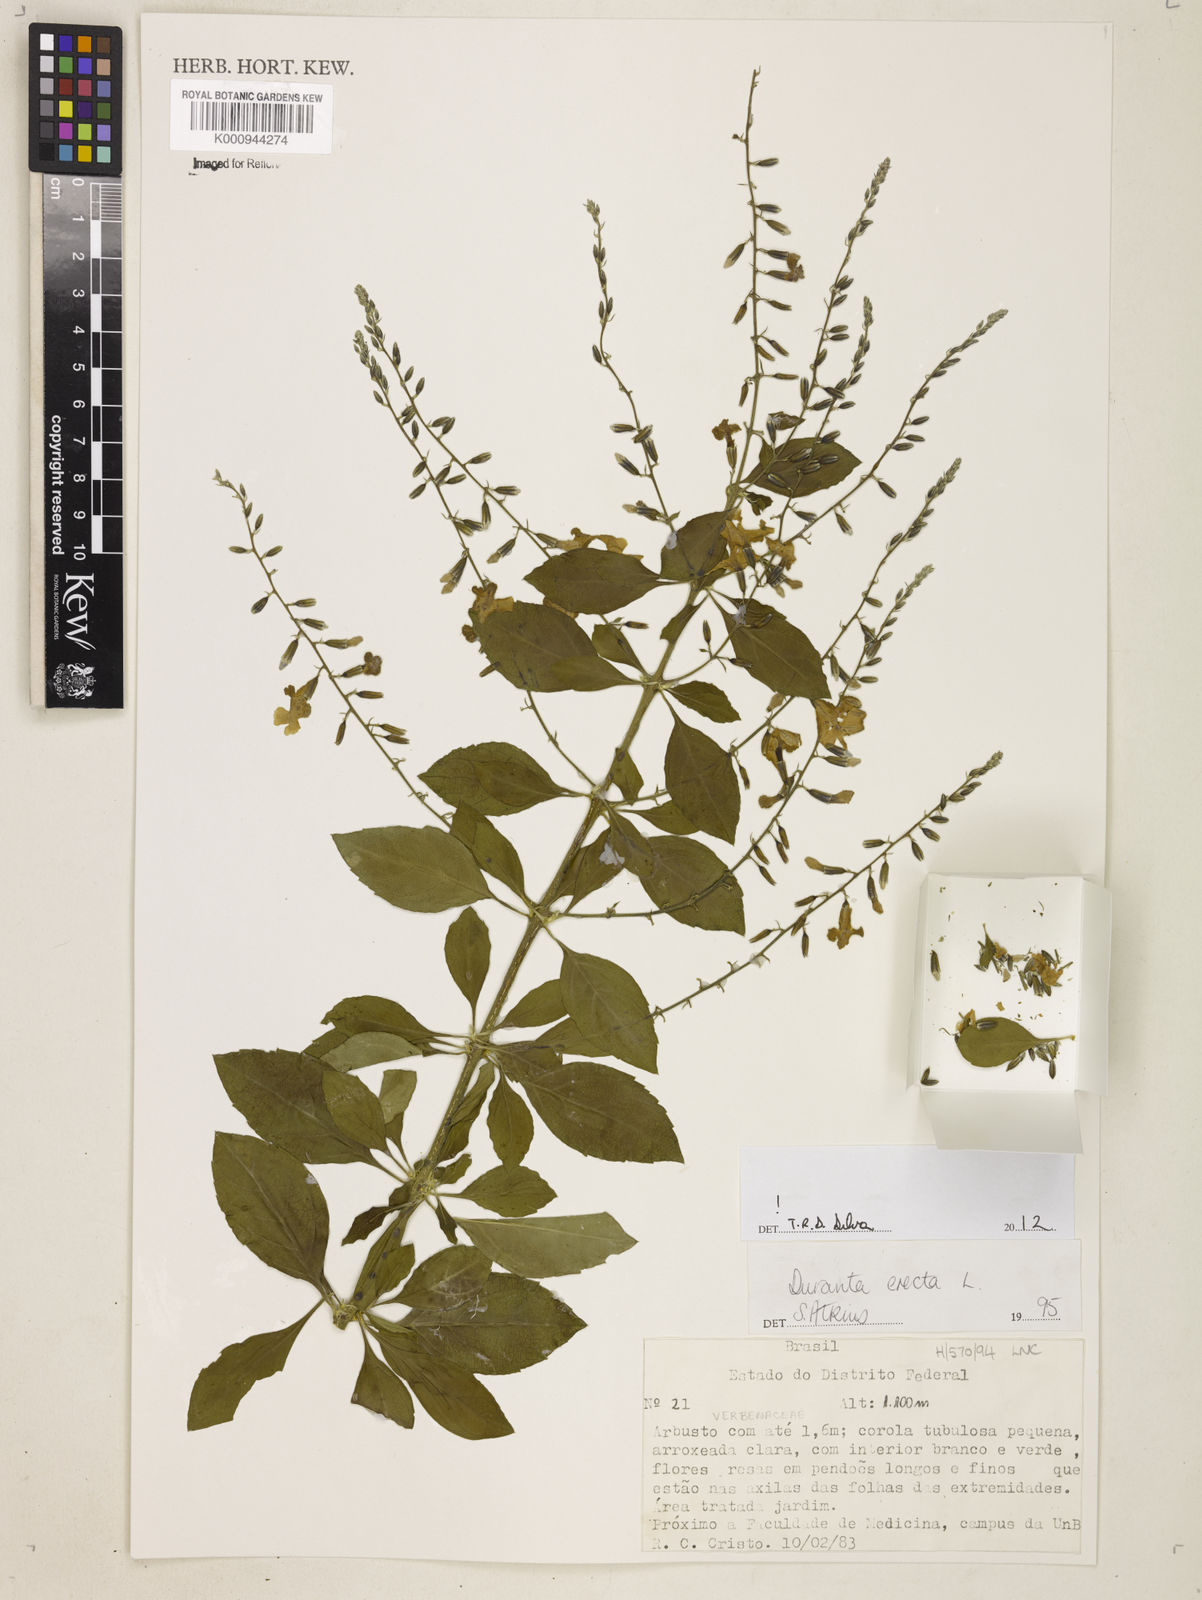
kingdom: Plantae
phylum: Tracheophyta
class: Magnoliopsida
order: Lamiales
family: Verbenaceae
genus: Citharexylum
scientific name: Citharexylum caudatum
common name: Fiddlewood
